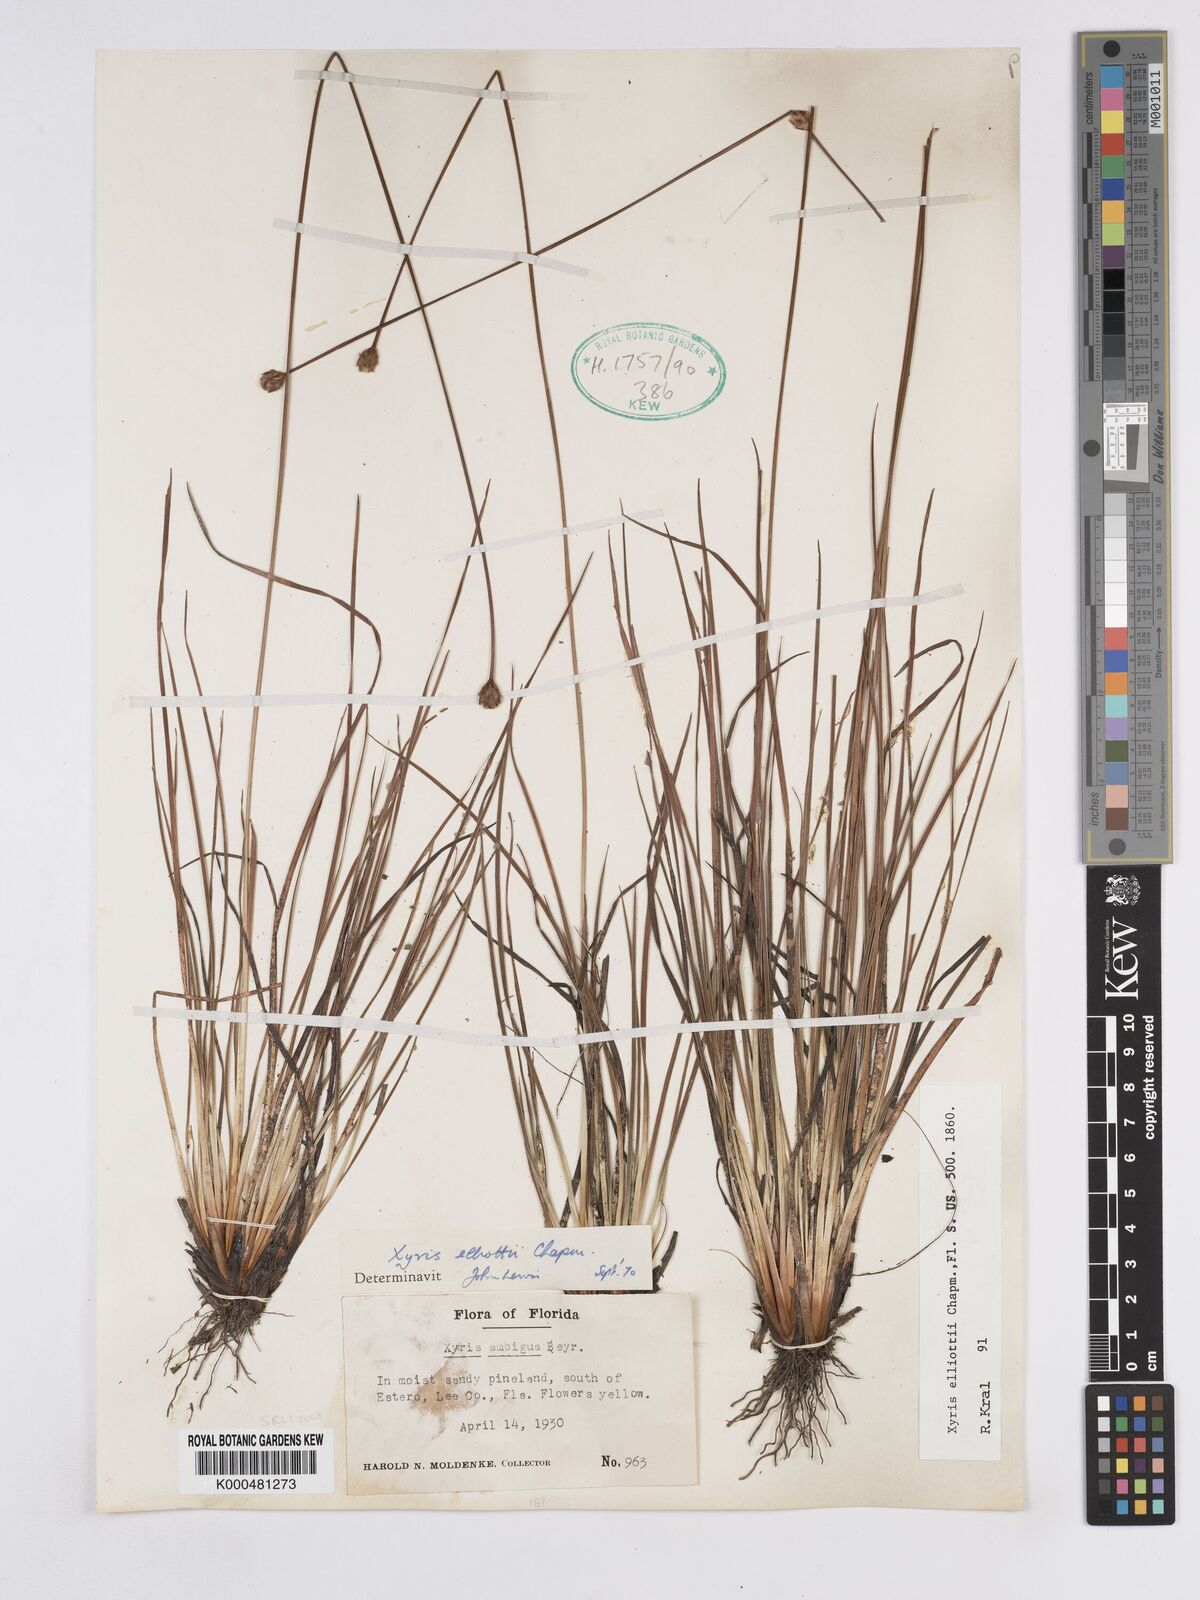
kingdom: Plantae
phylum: Tracheophyta
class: Liliopsida
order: Poales
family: Xyridaceae
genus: Xyris
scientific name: Xyris elliottii
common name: Elliot's yelloweyed grass
